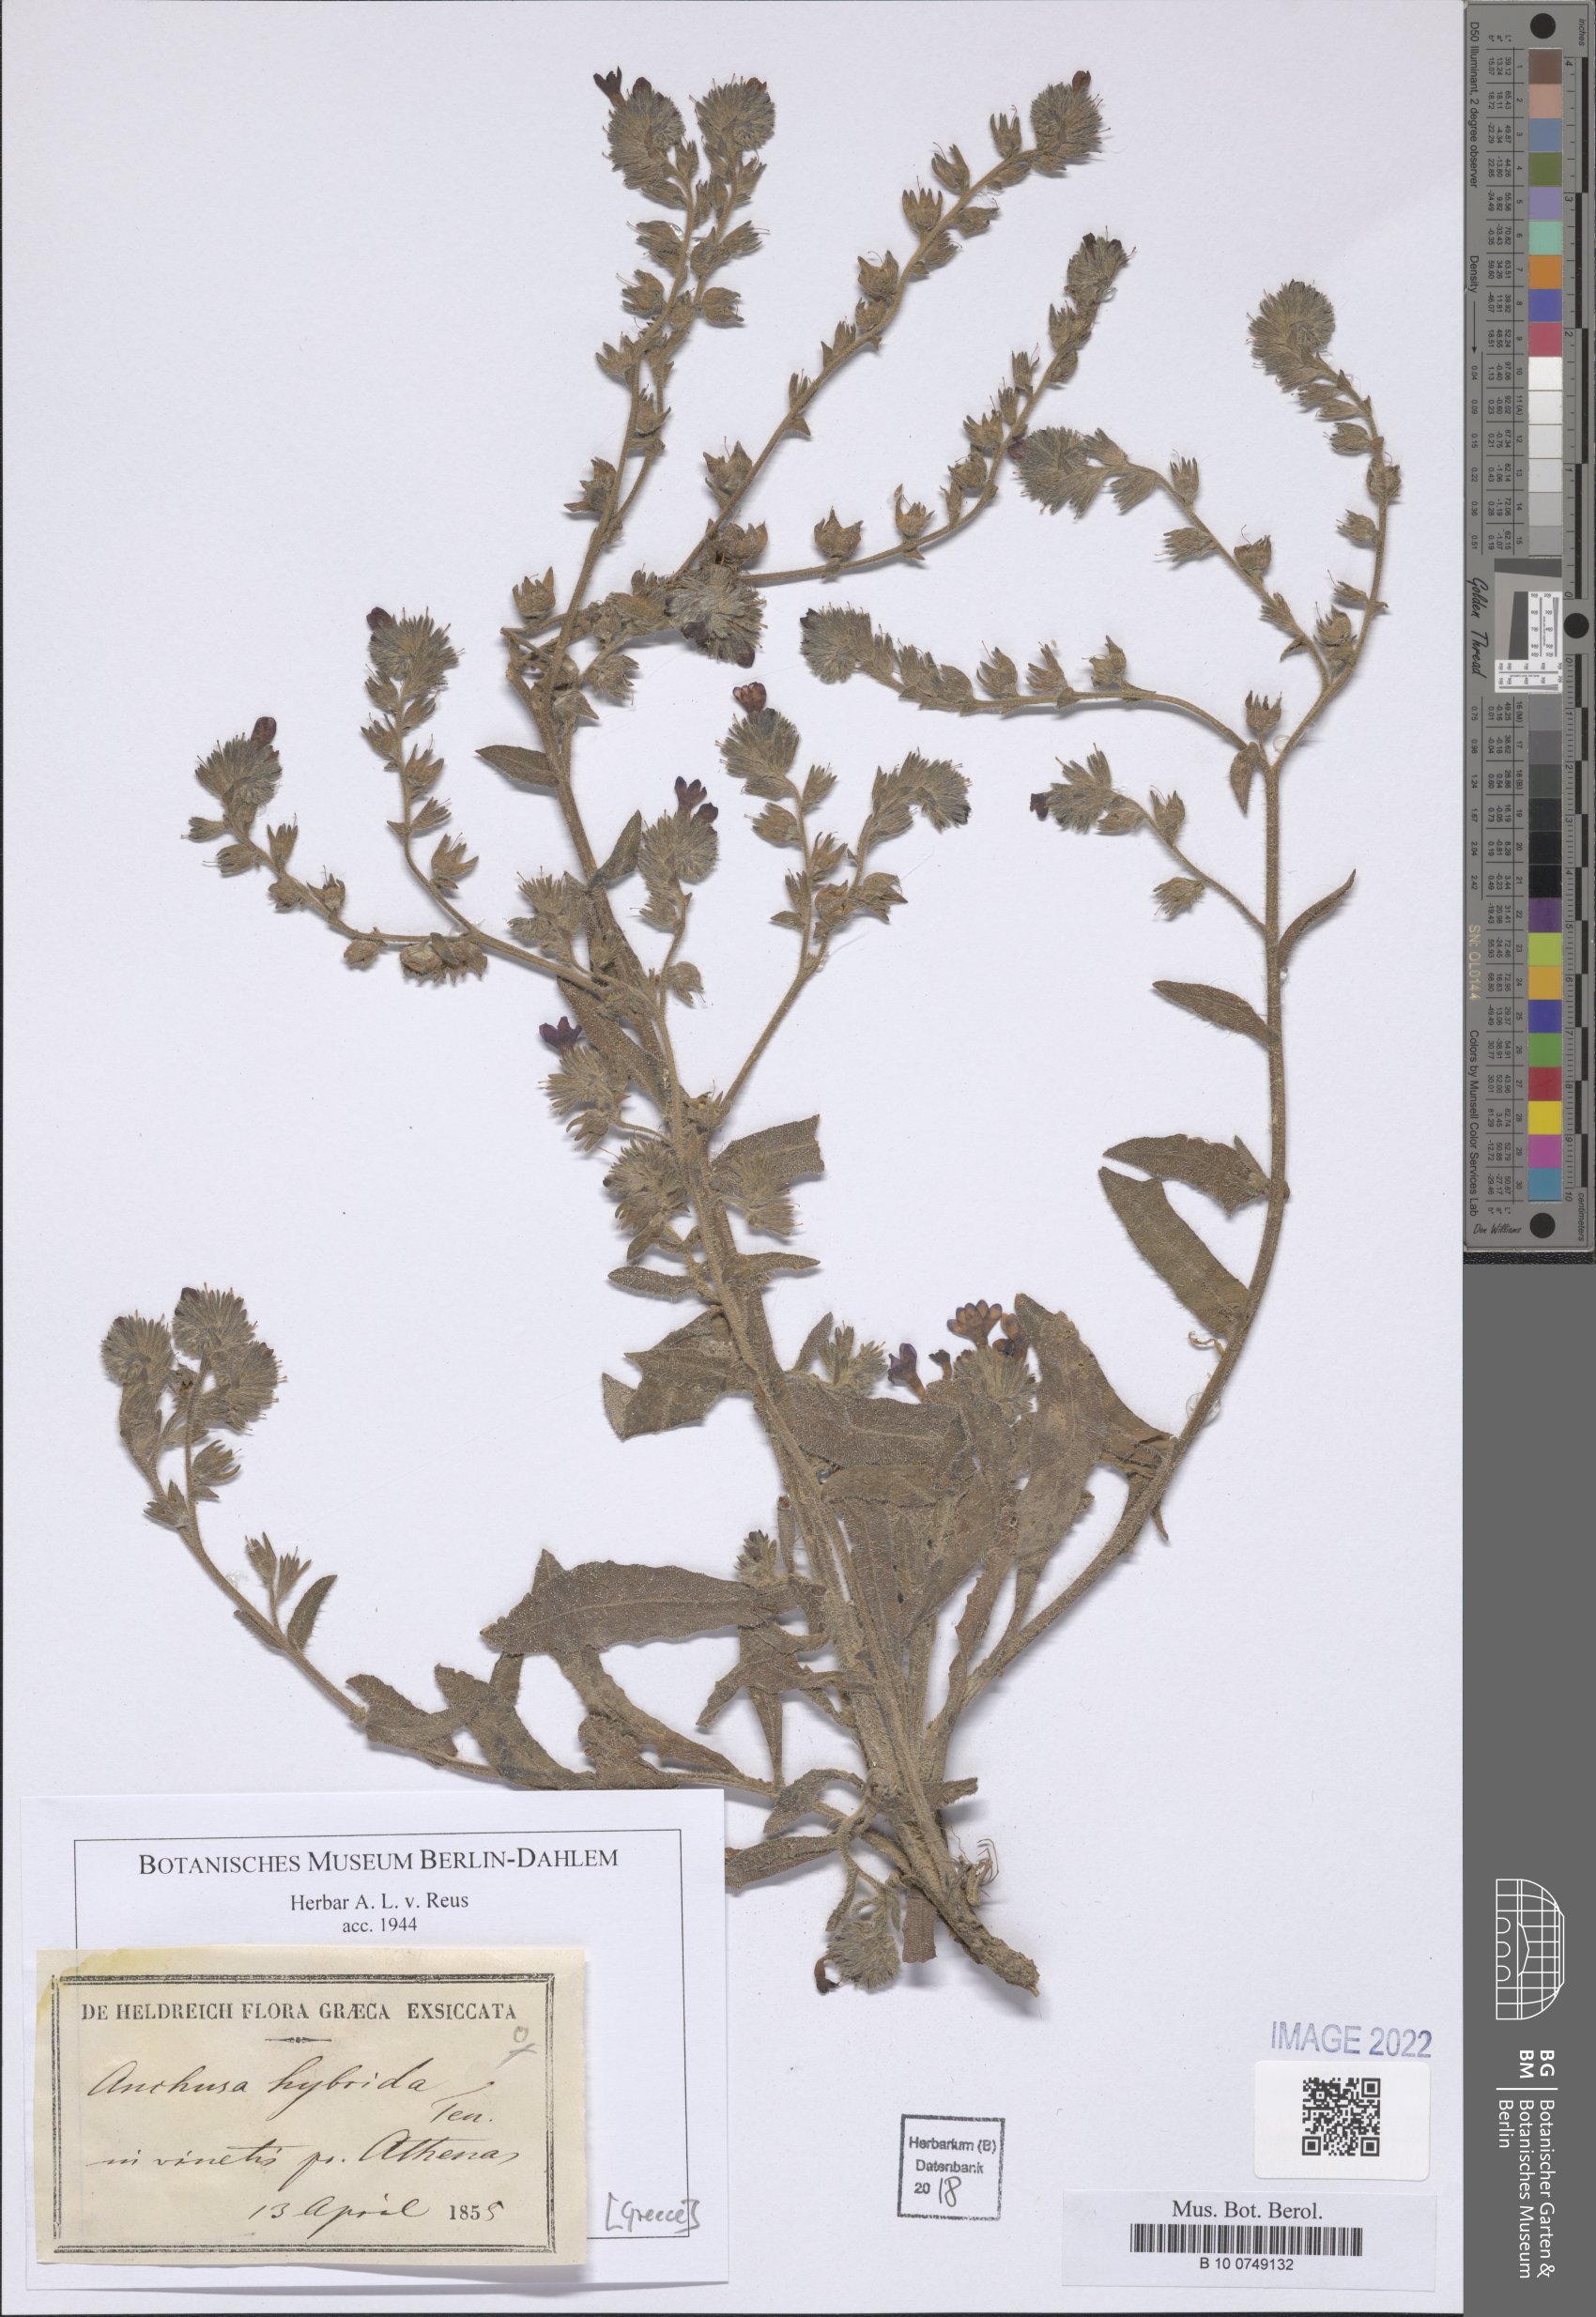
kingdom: Plantae
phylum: Tracheophyta
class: Magnoliopsida
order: Boraginales
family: Boraginaceae
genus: Anchusa
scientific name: Anchusa hybrida
